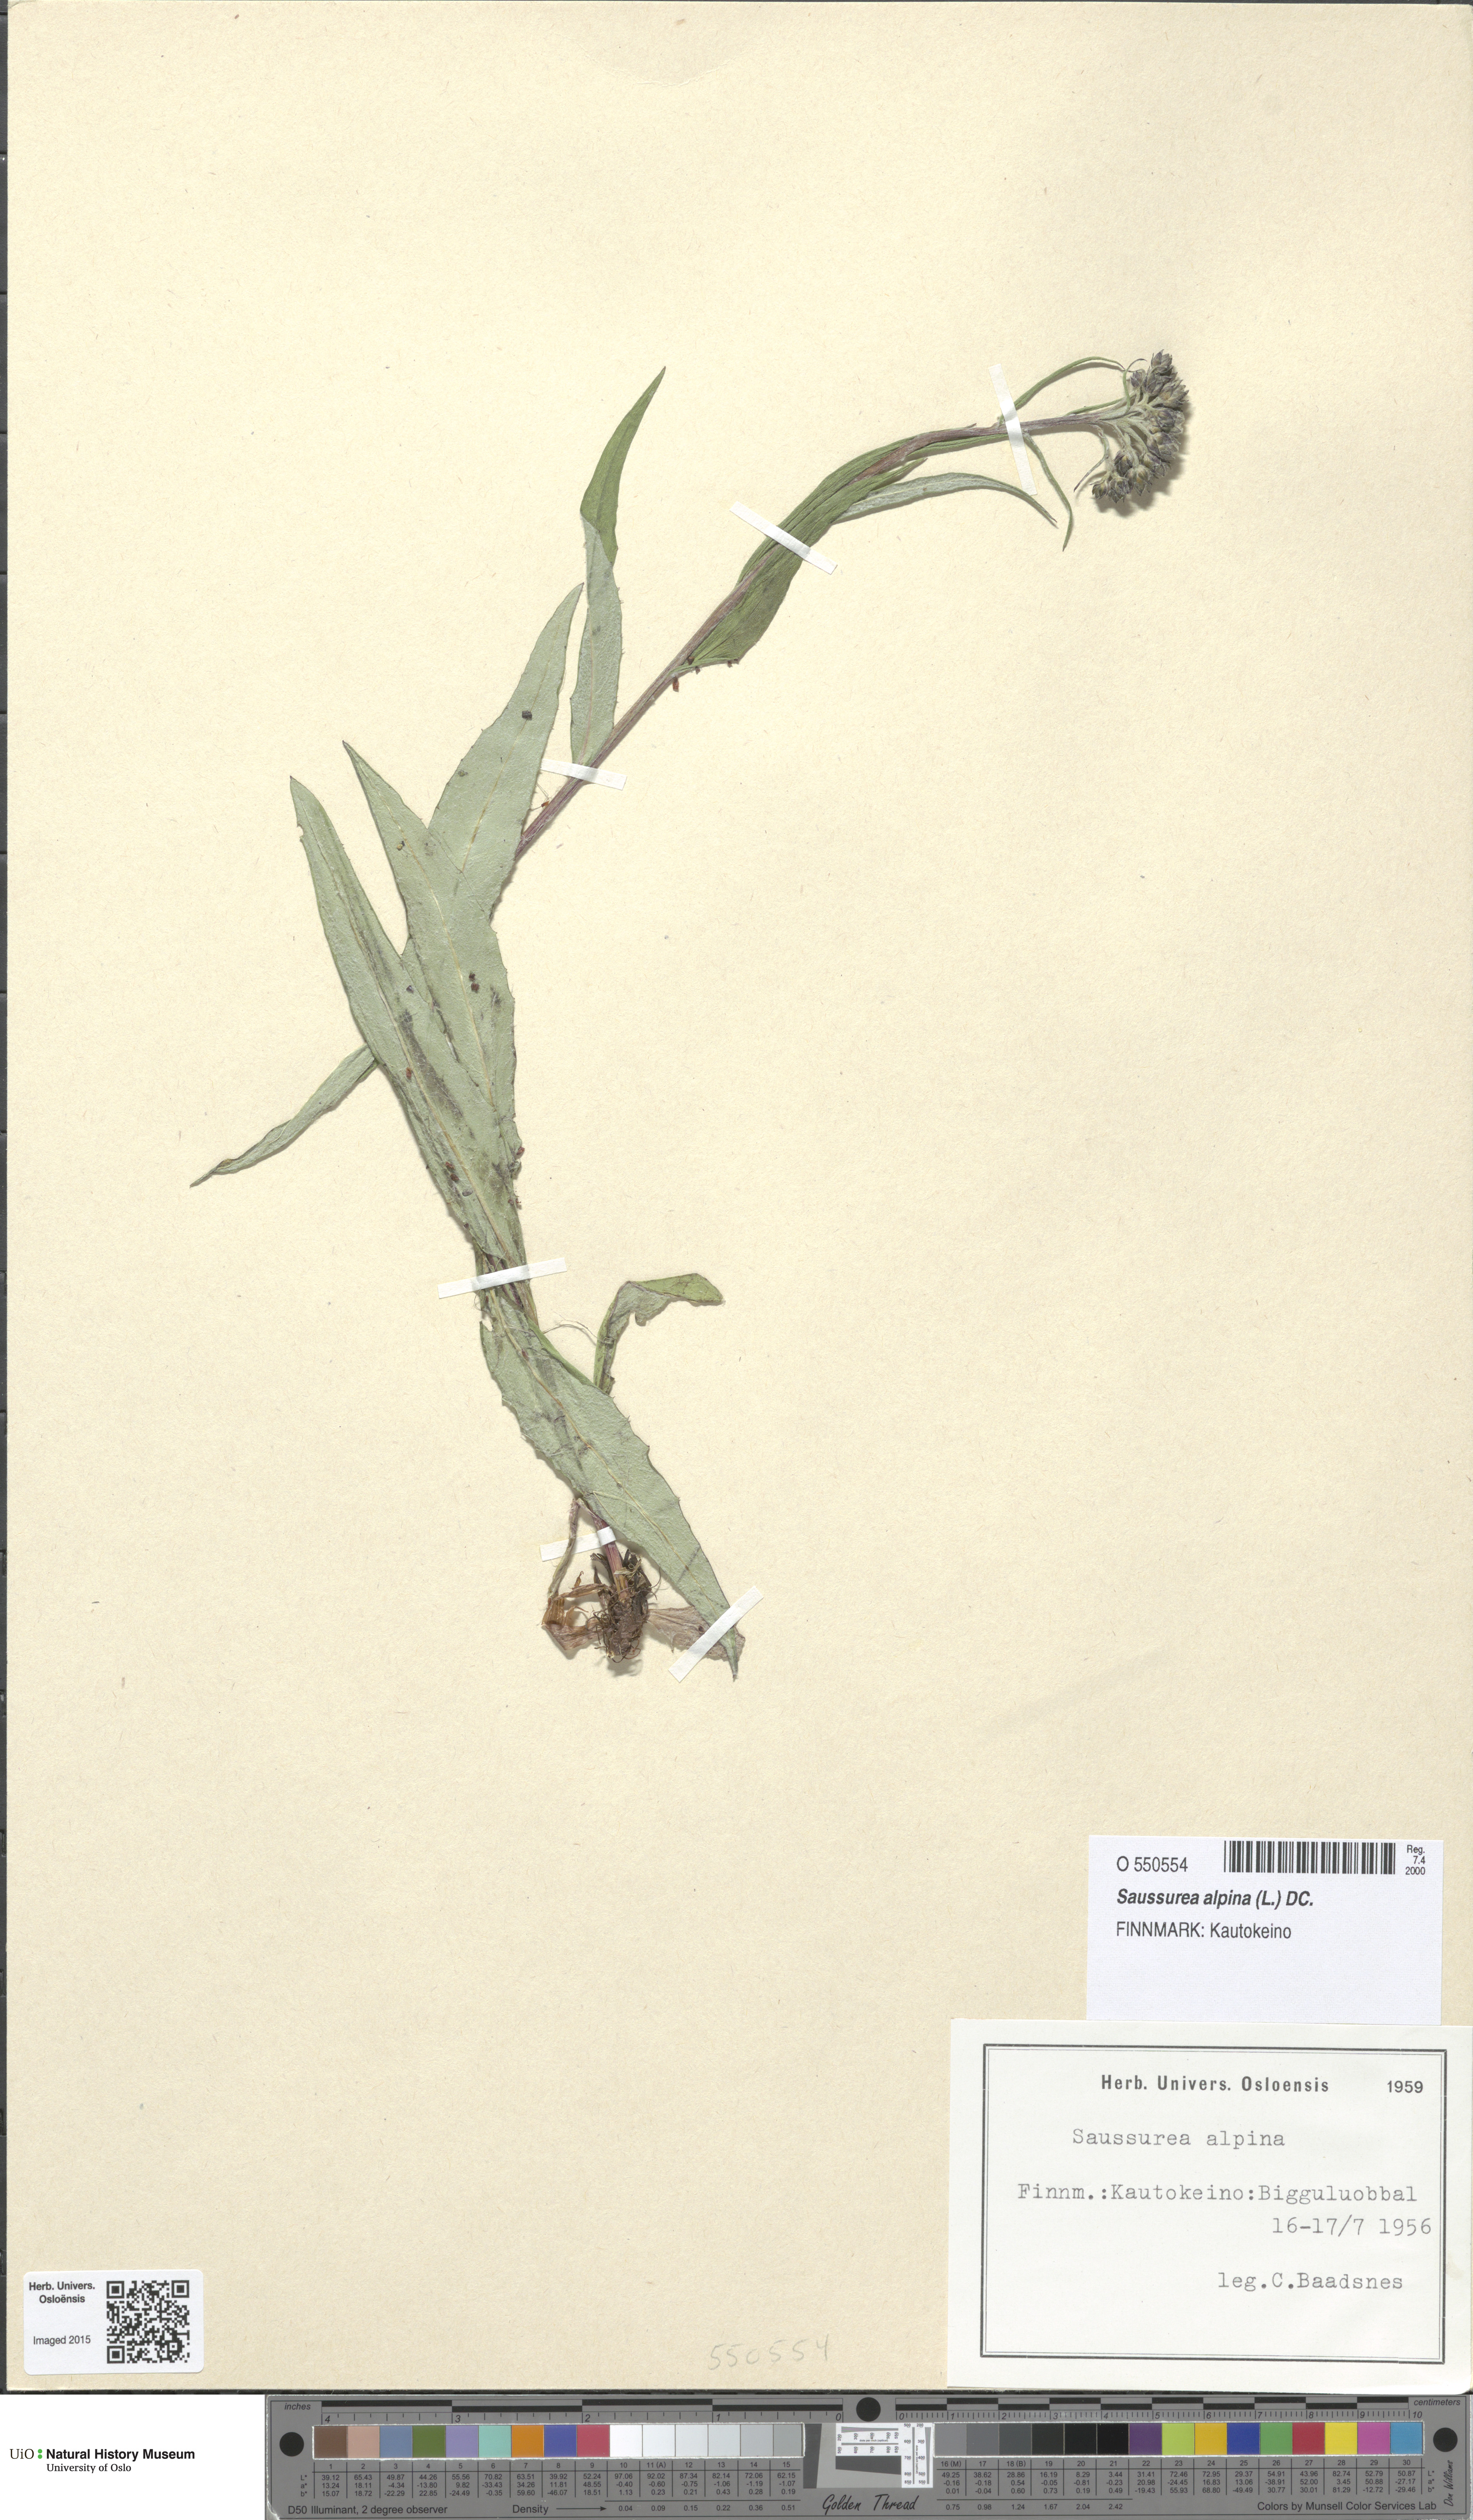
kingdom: Plantae
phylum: Tracheophyta
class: Magnoliopsida
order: Asterales
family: Asteraceae
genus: Saussurea
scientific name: Saussurea alpina
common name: Alpine saw-wort
